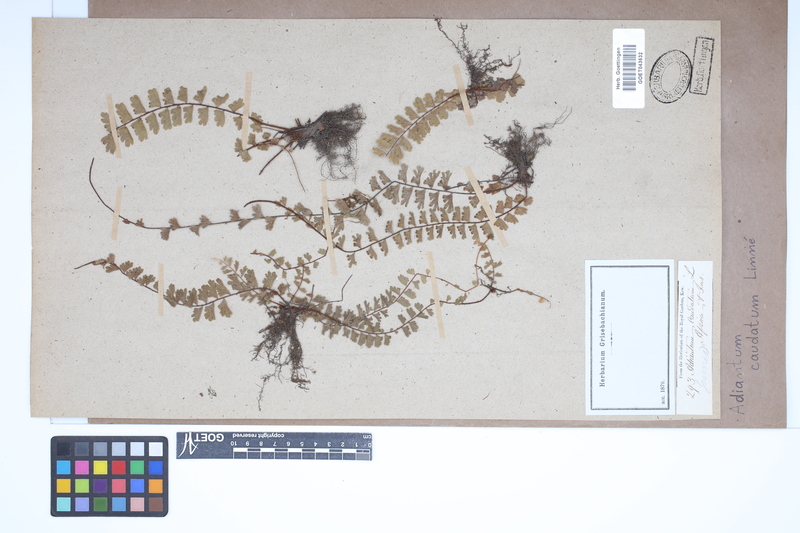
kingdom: Plantae
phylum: Tracheophyta
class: Polypodiopsida
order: Polypodiales
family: Pteridaceae
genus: Adiantum
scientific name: Adiantum caudatum
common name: Tailed maidenhair
